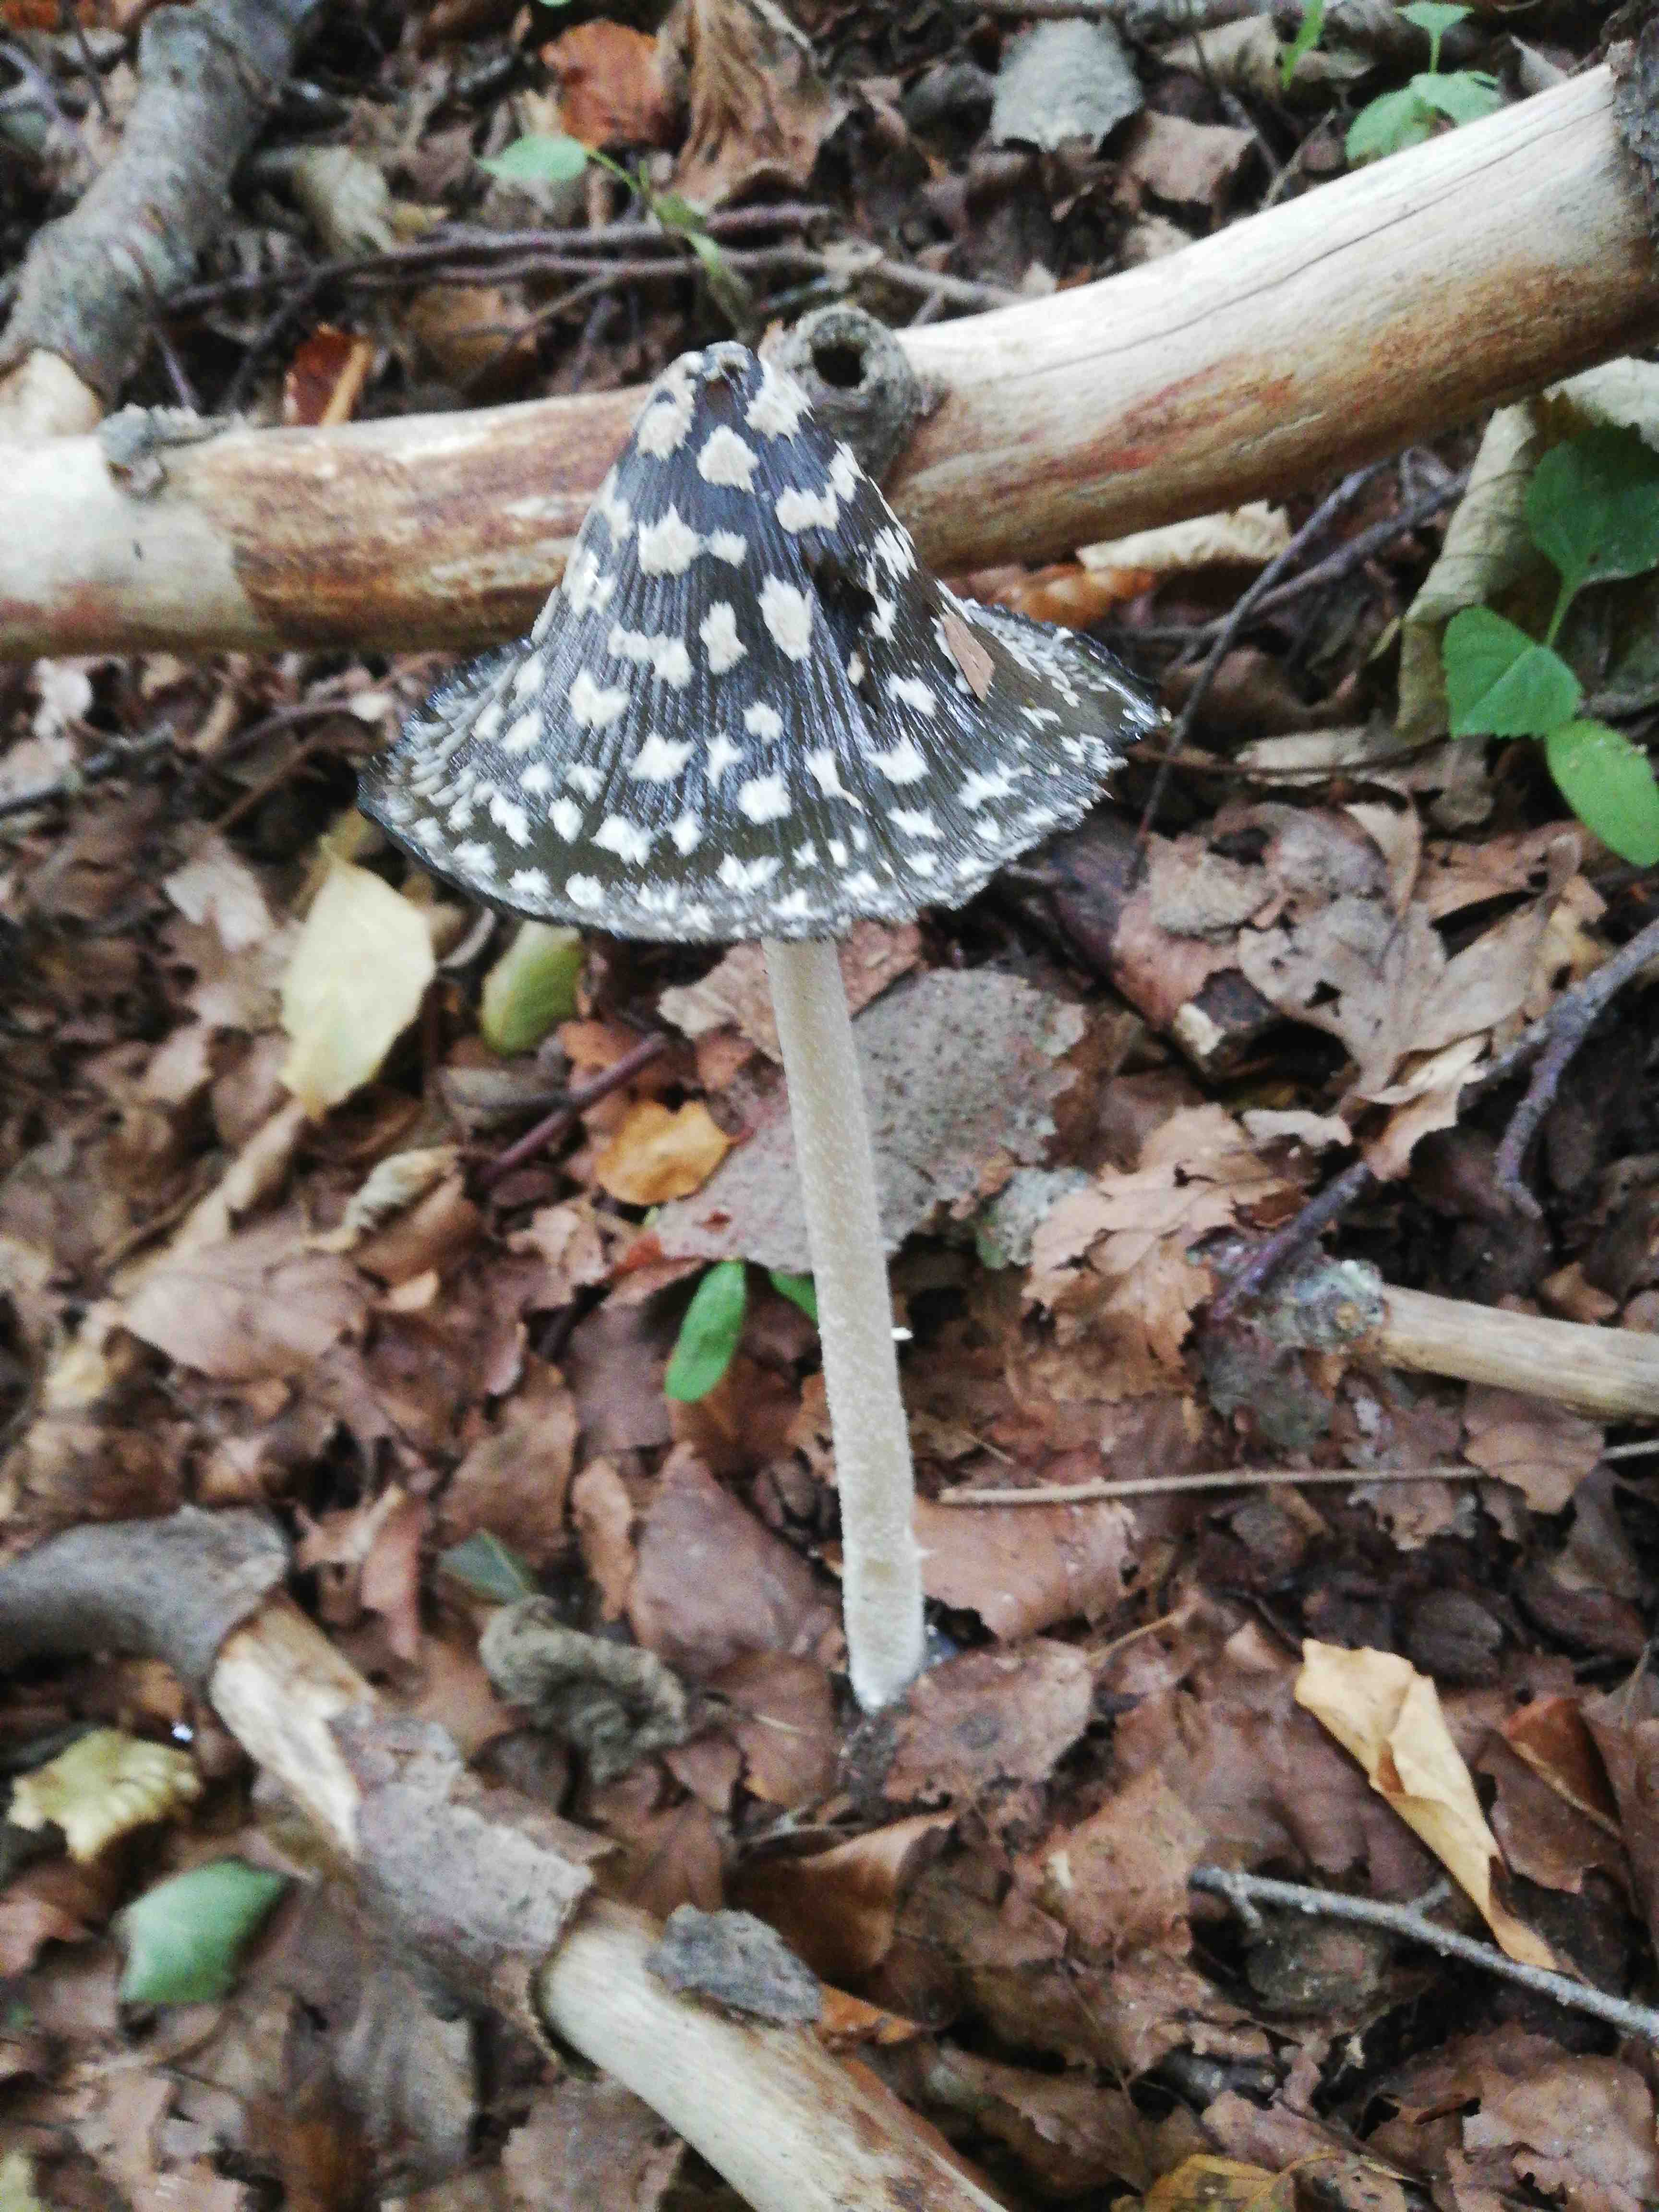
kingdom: Fungi
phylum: Basidiomycota
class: Agaricomycetes
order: Agaricales
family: Psathyrellaceae
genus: Coprinopsis
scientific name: Coprinopsis picacea
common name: skade-blækhat
